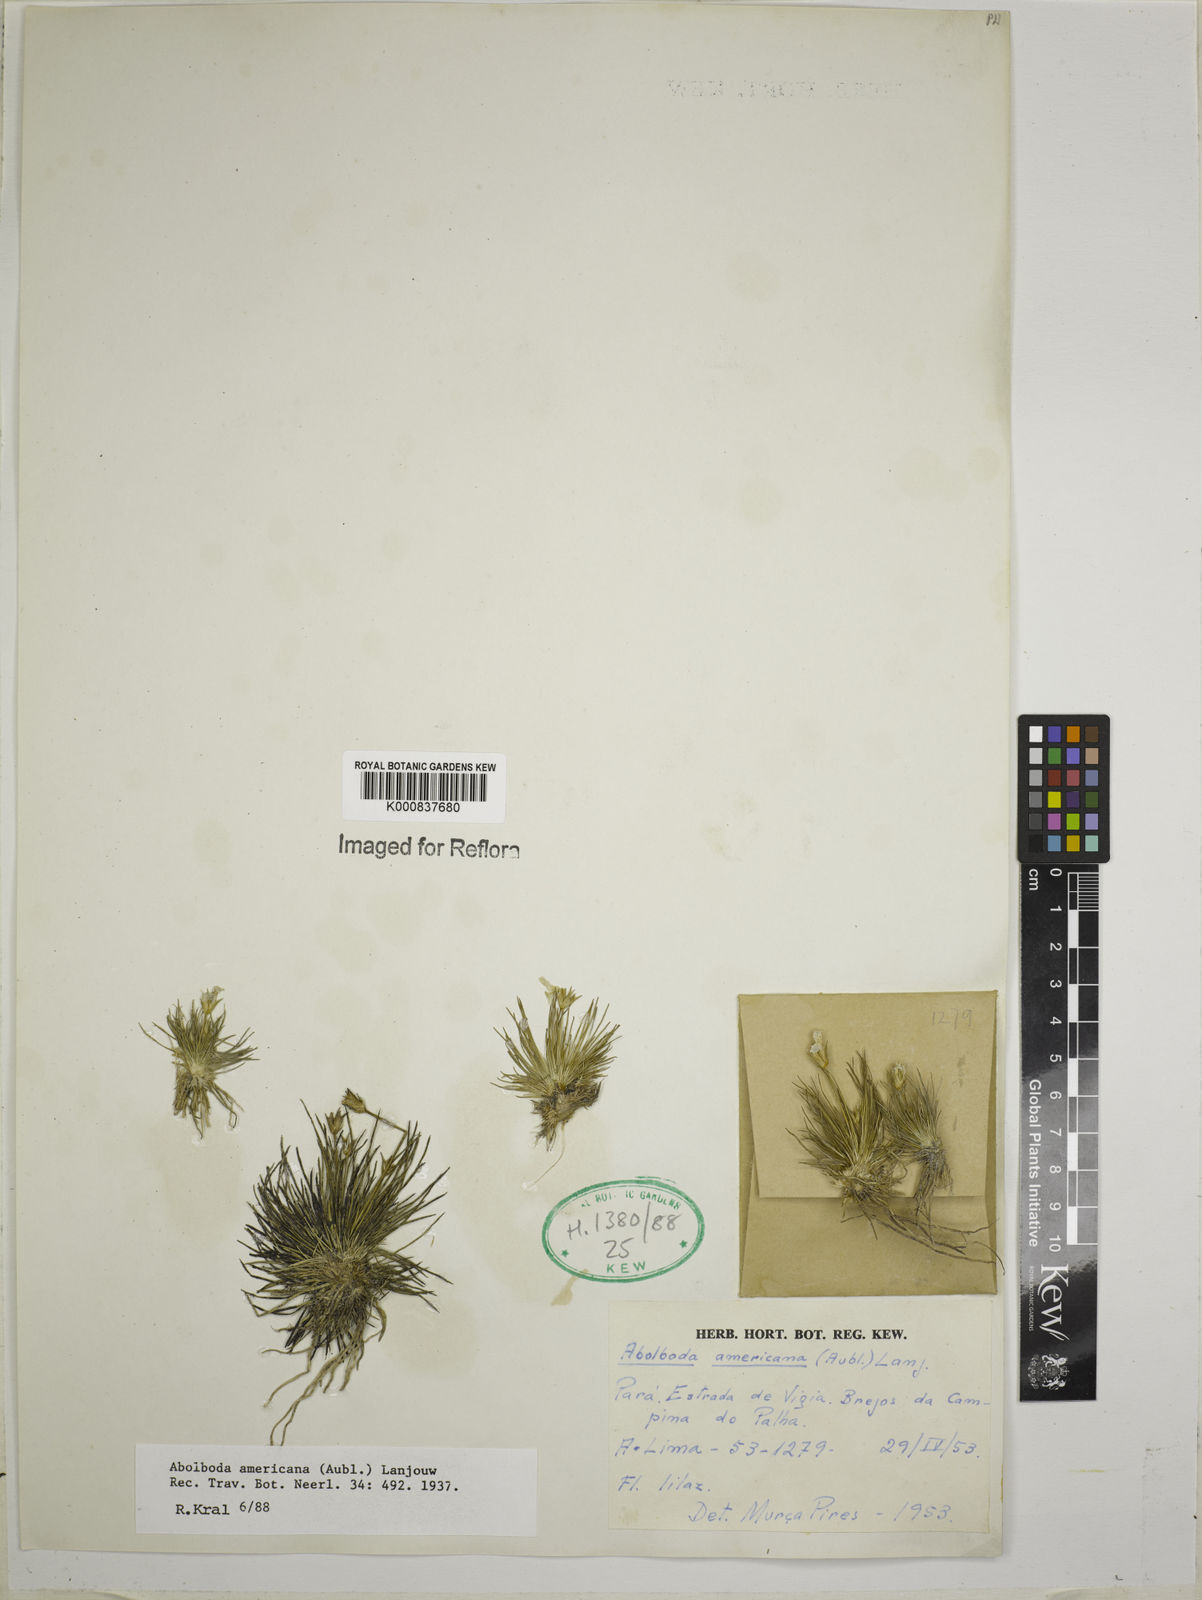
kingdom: Plantae
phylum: Tracheophyta
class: Liliopsida
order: Poales
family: Xyridaceae
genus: Abolboda
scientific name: Abolboda americana
